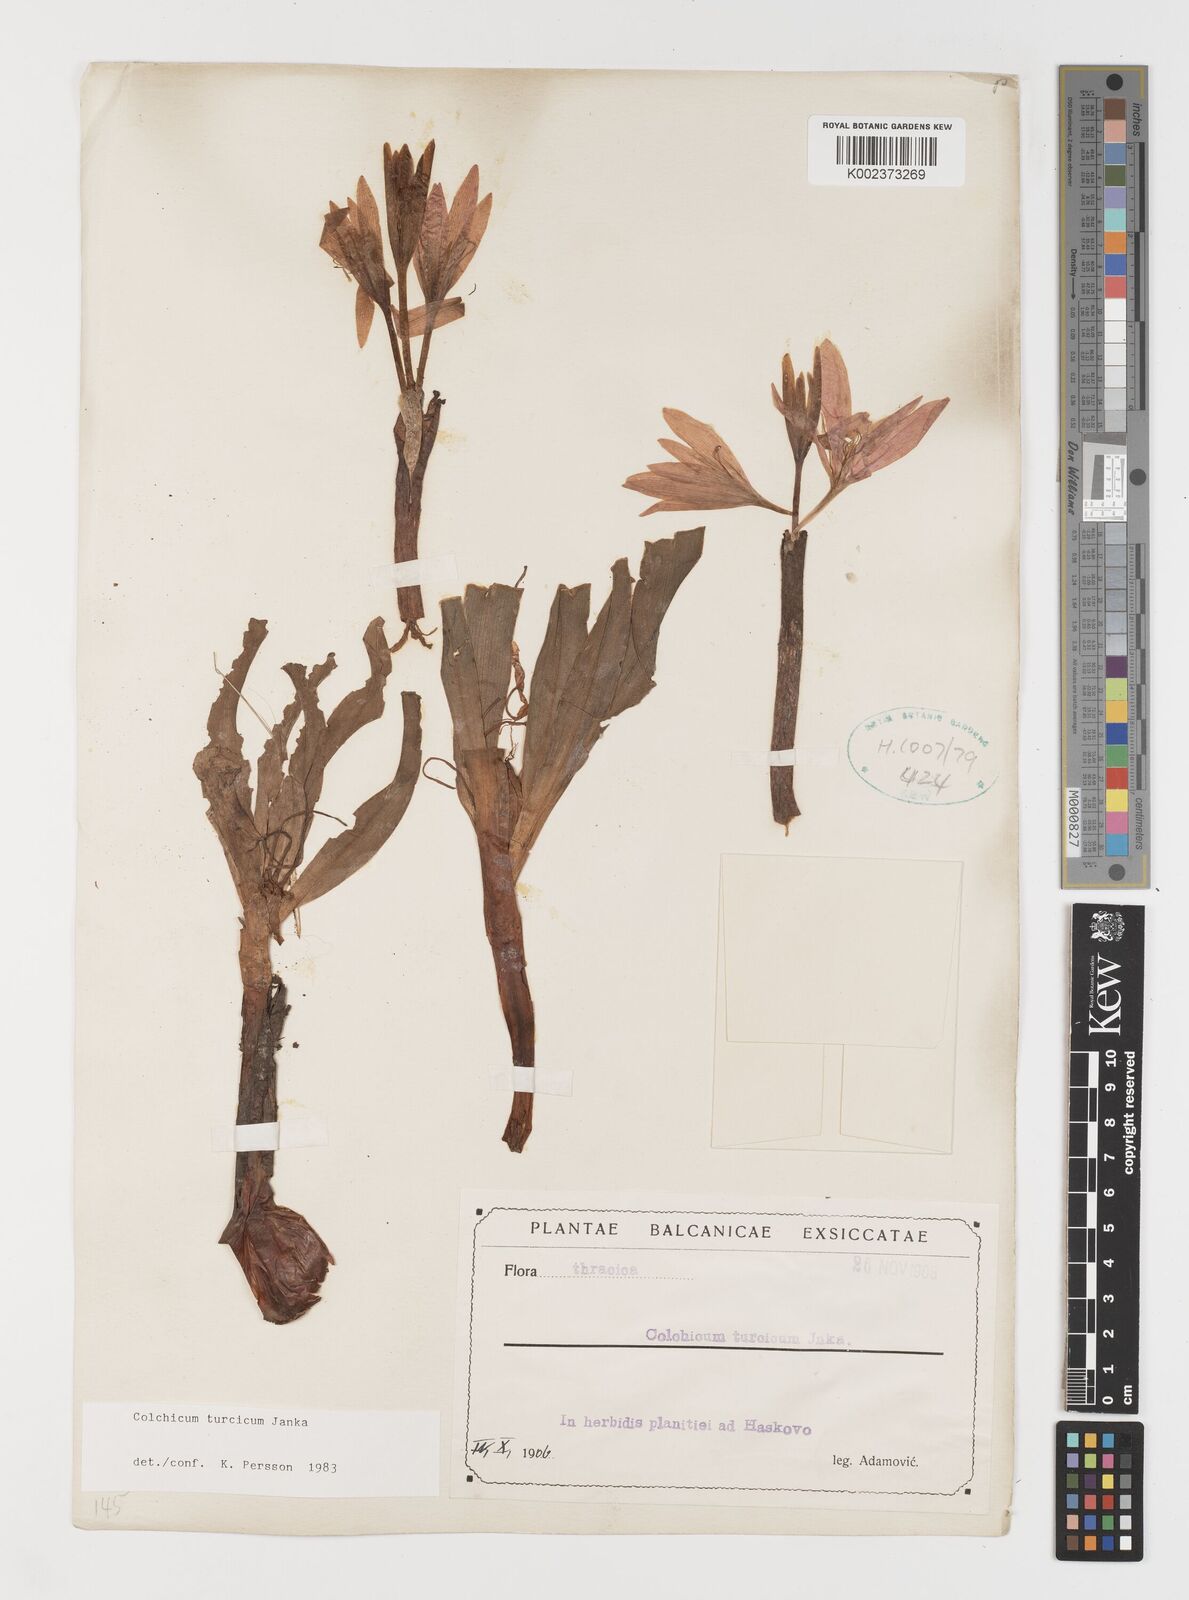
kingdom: Plantae
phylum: Tracheophyta
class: Liliopsida
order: Liliales
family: Colchicaceae
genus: Colchicum
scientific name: Colchicum turcicum
